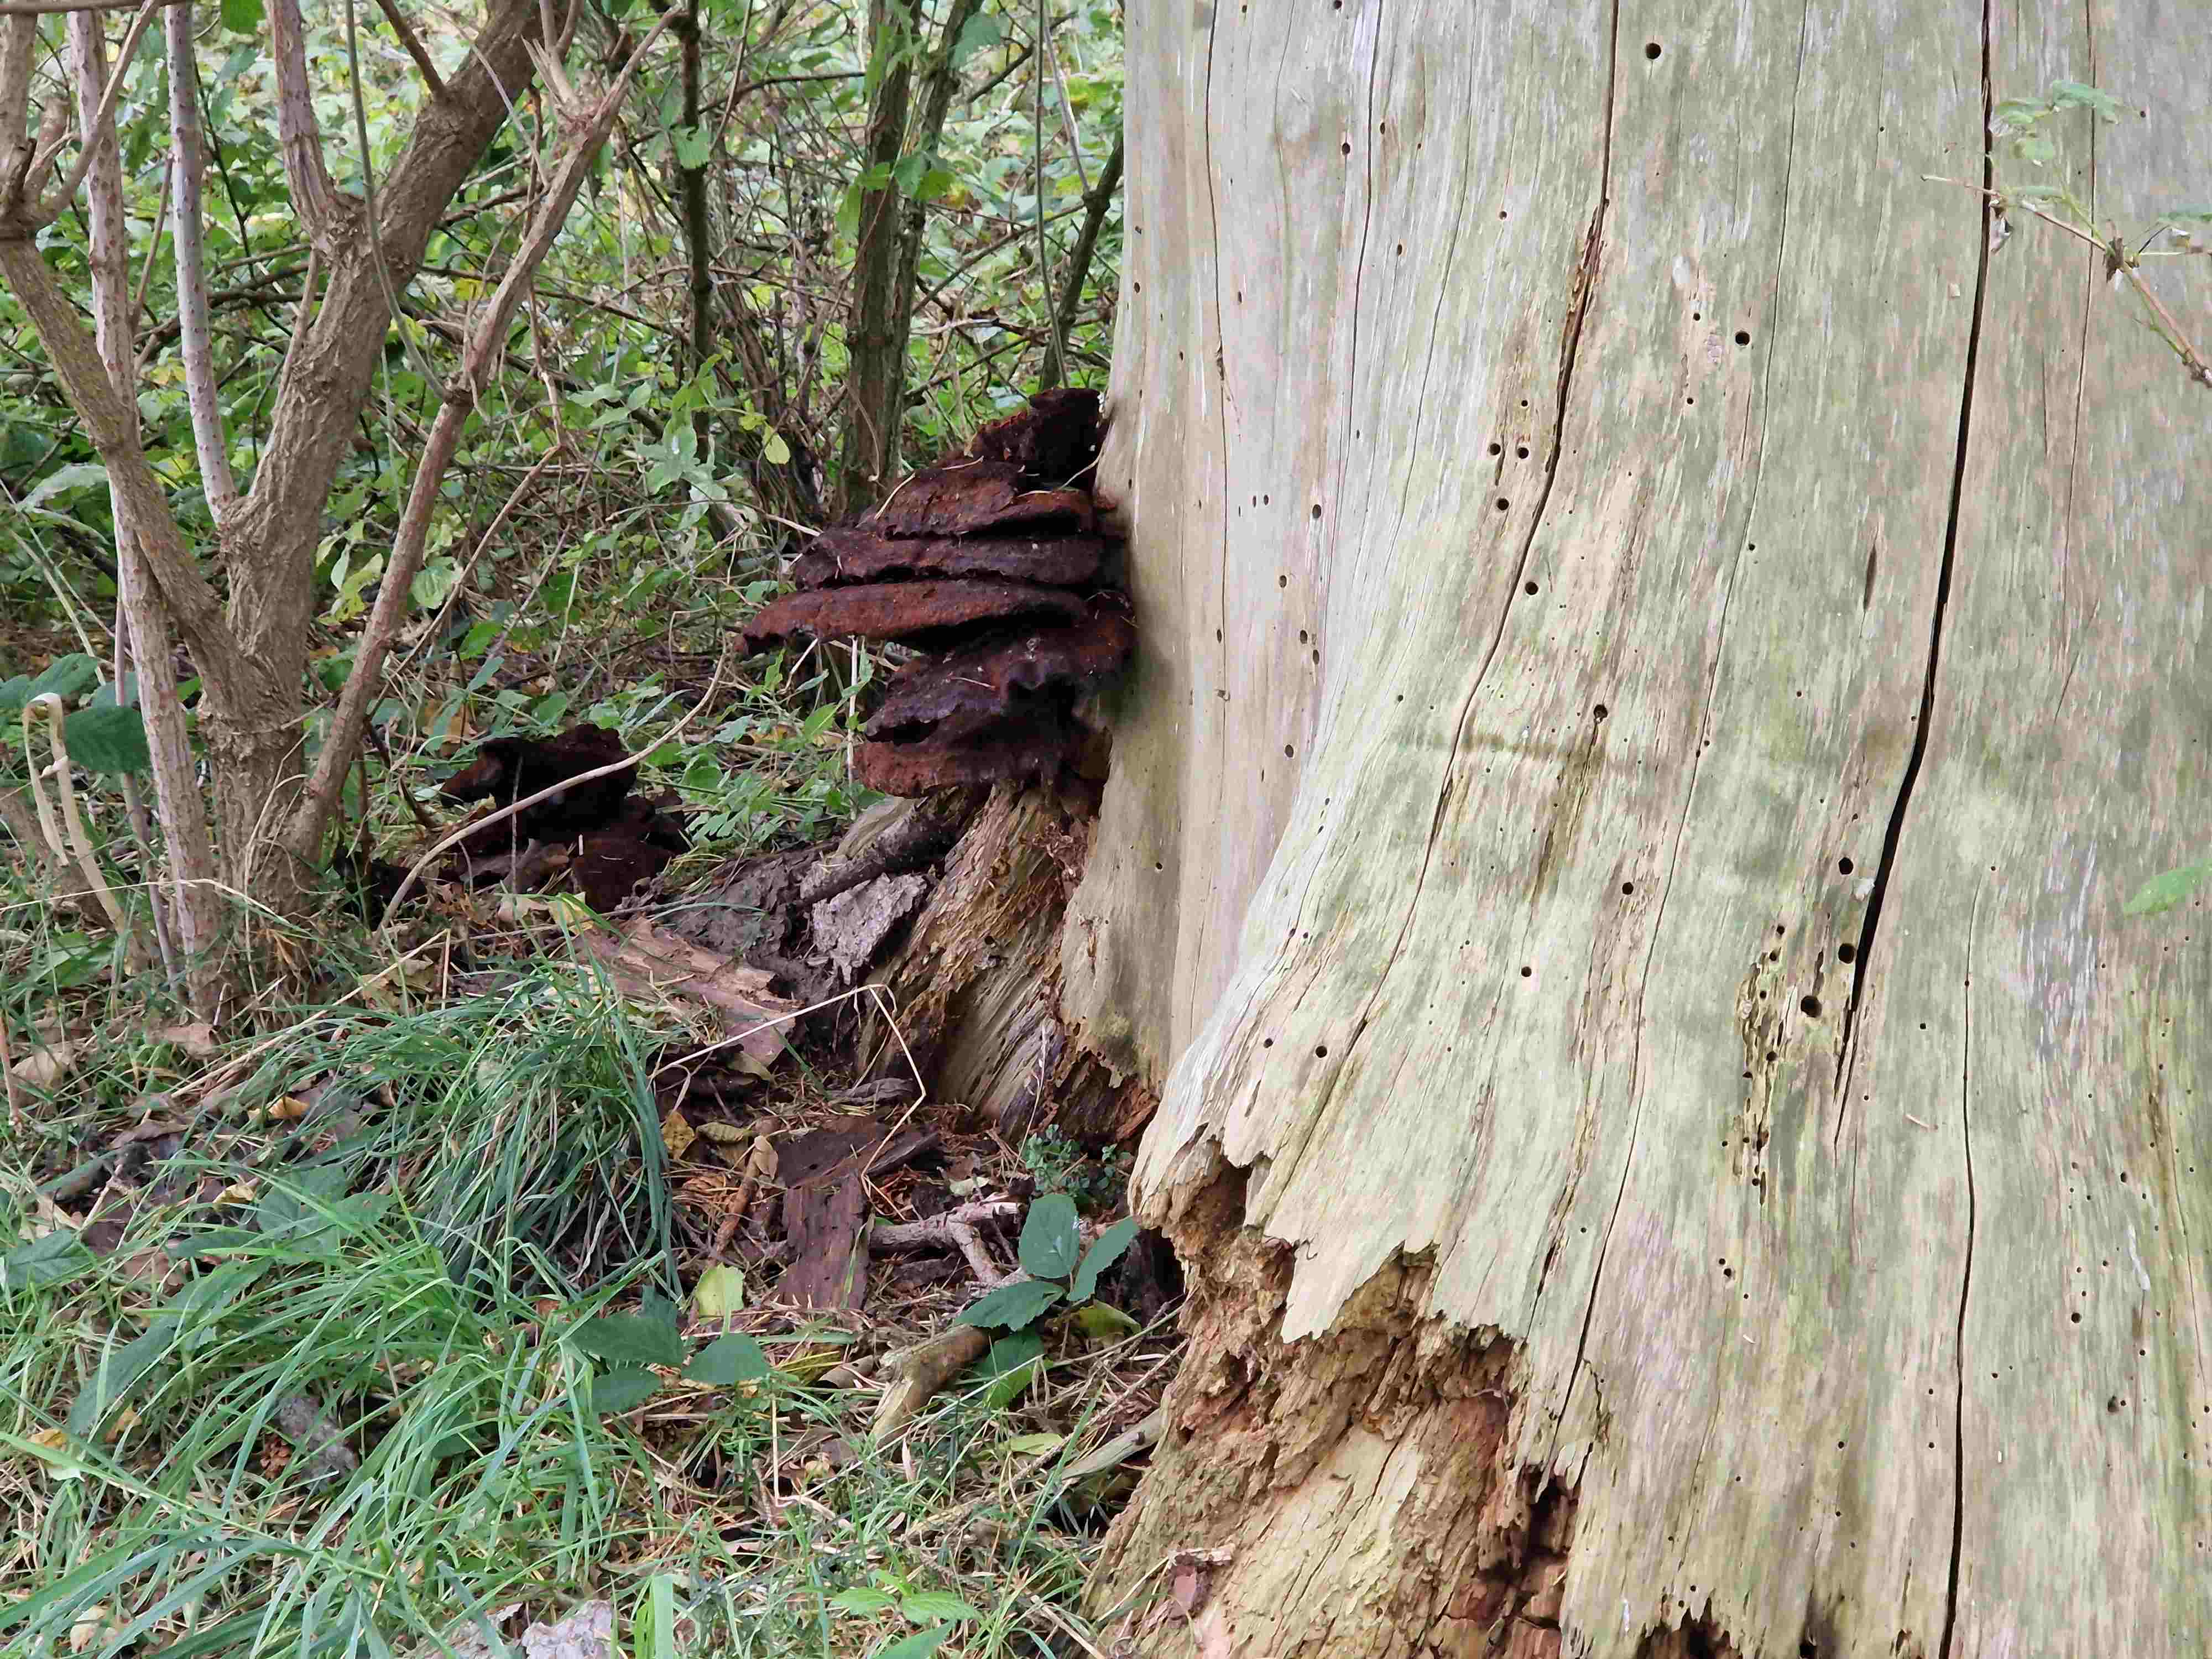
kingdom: Fungi
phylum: Basidiomycota
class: Agaricomycetes
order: Polyporales
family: Laetiporaceae
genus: Phaeolus
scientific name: Phaeolus schweinitzii
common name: brunporesvamp
